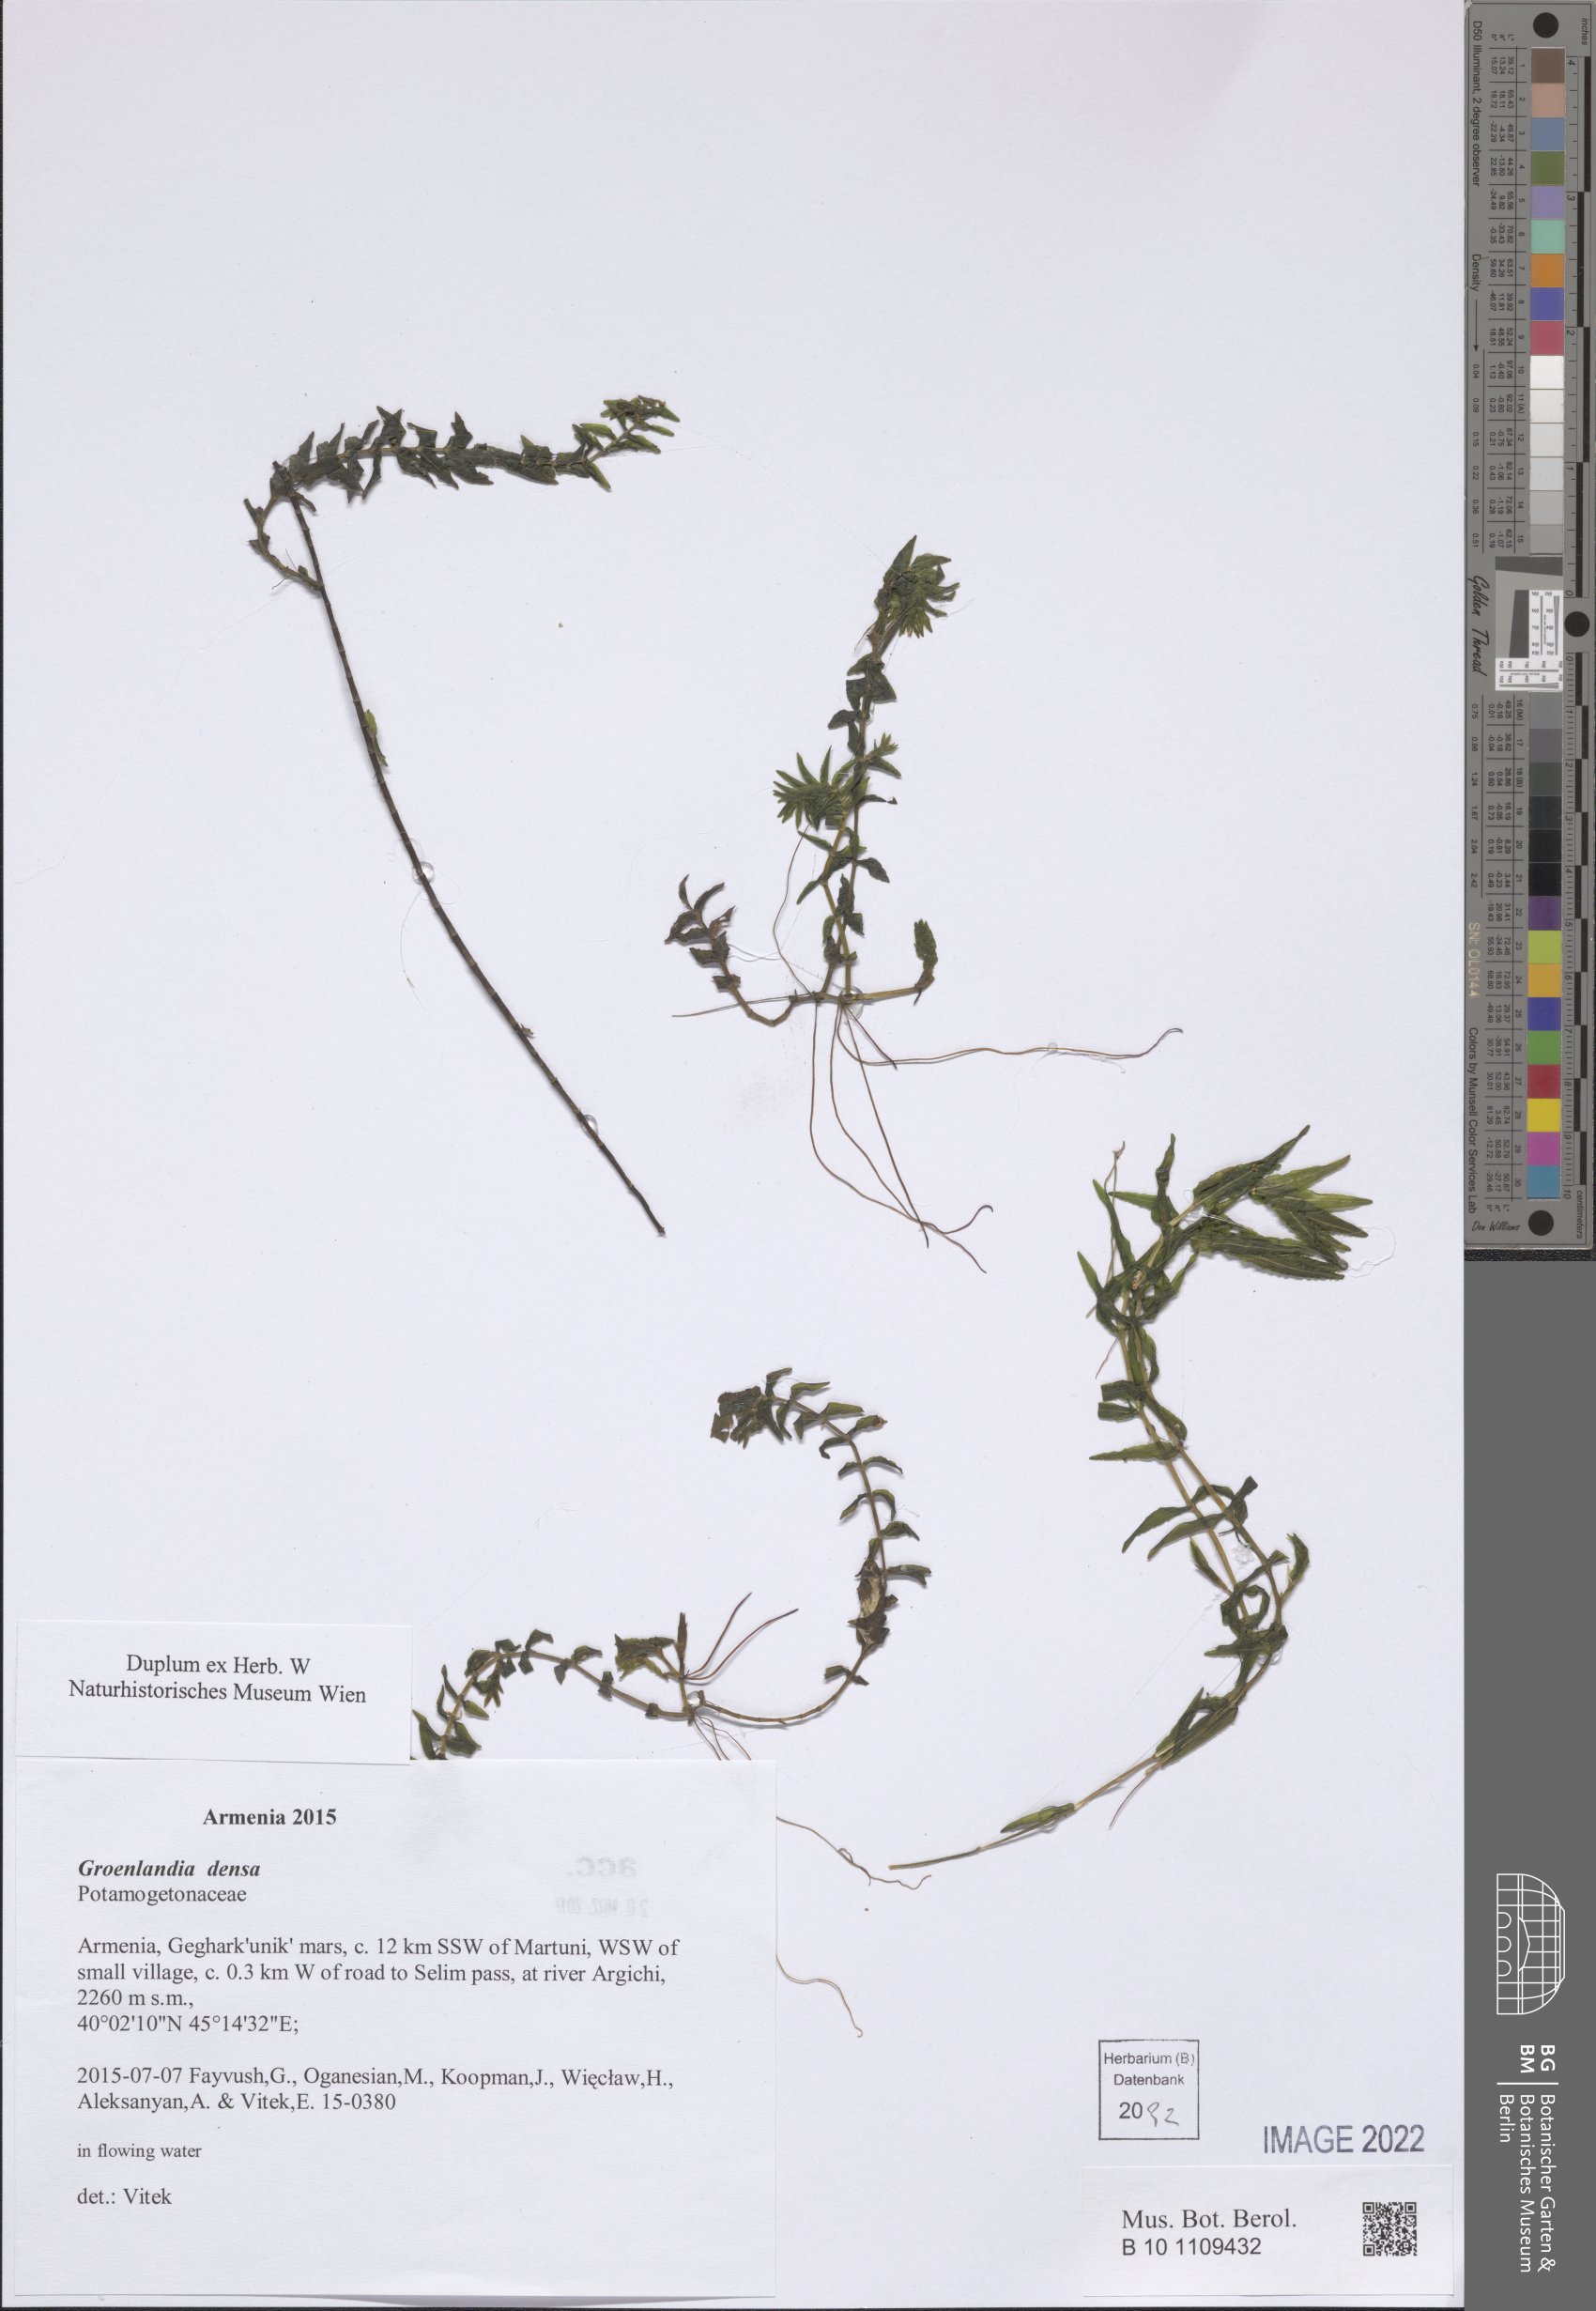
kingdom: Plantae
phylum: Tracheophyta
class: Liliopsida
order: Alismatales
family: Potamogetonaceae
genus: Groenlandia
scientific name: Groenlandia densa
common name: Opposite-leaved pondweed
